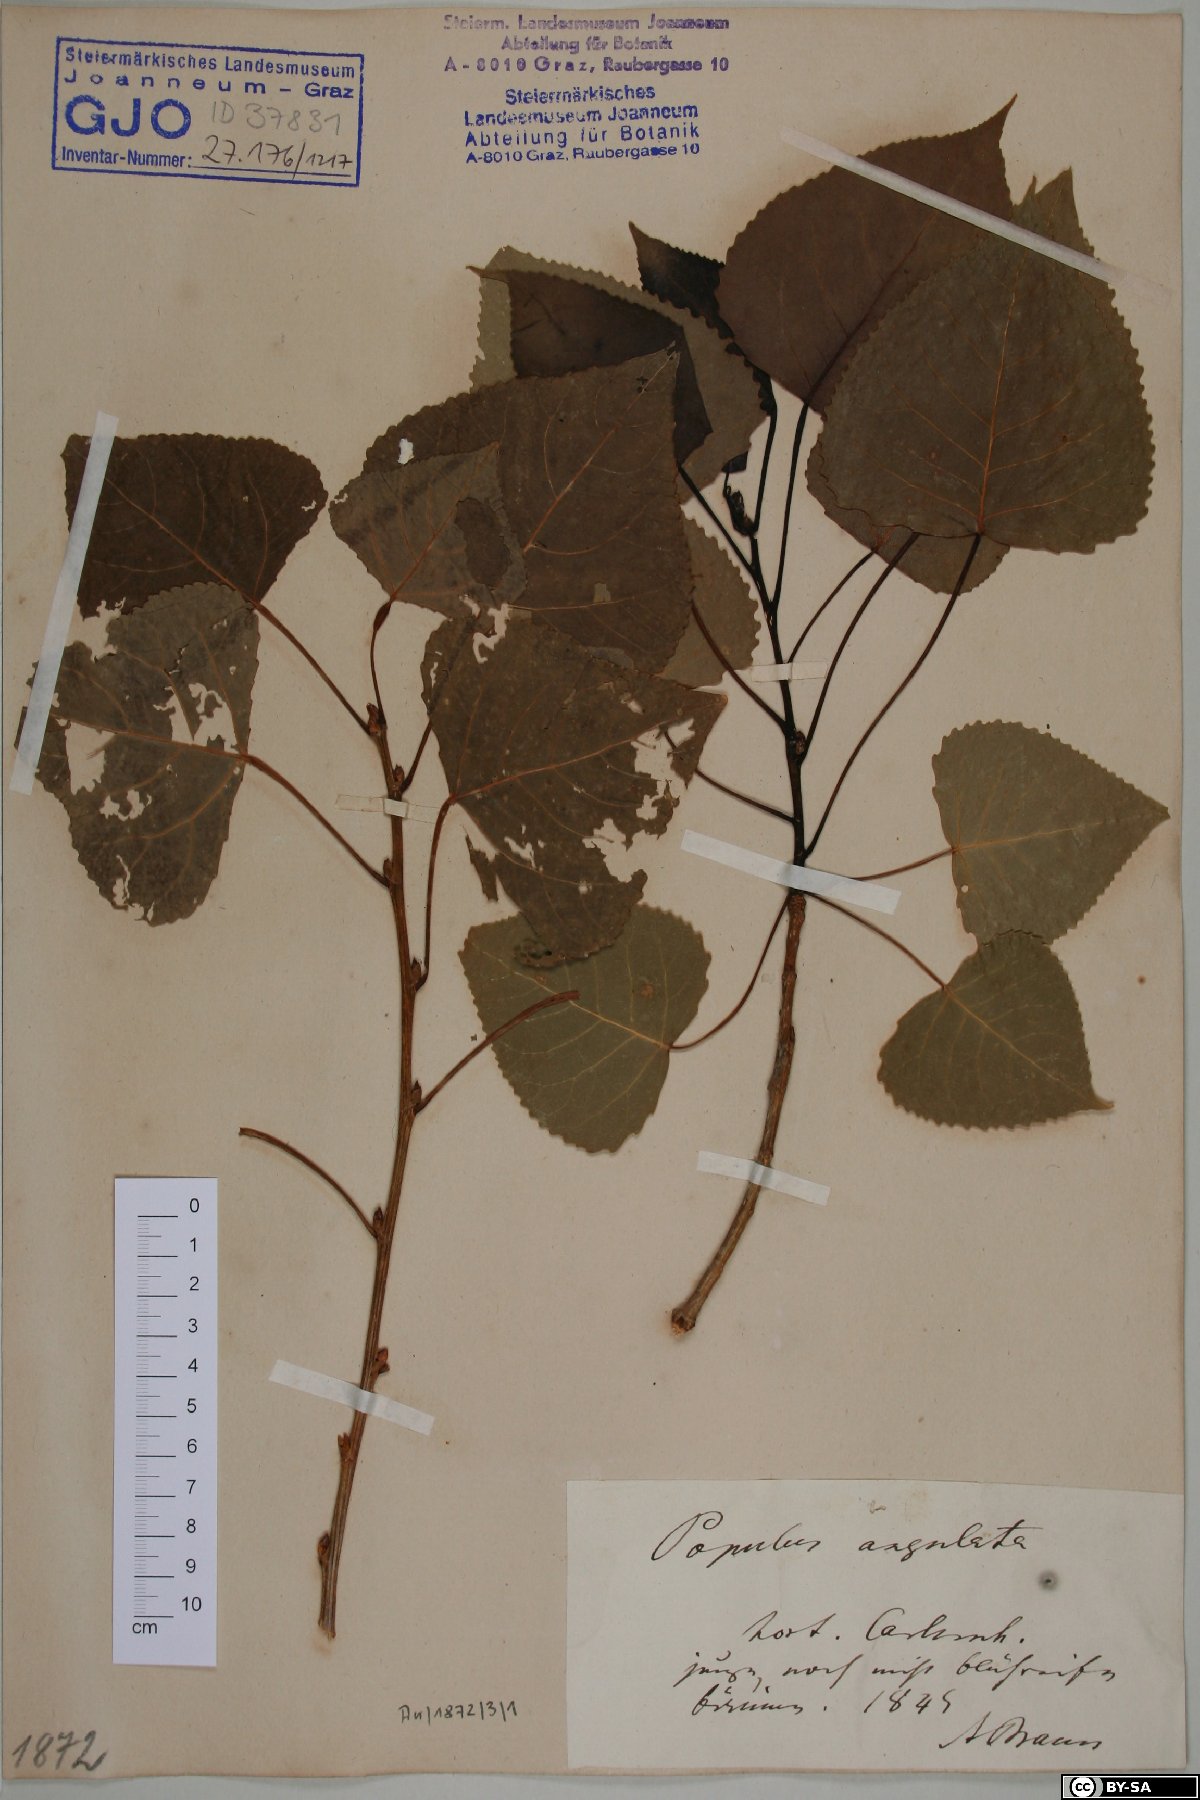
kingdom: Plantae
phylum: Tracheophyta
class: Magnoliopsida
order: Malpighiales
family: Salicaceae
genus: Populus
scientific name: Populus deltoides
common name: Eastern cottonwood
